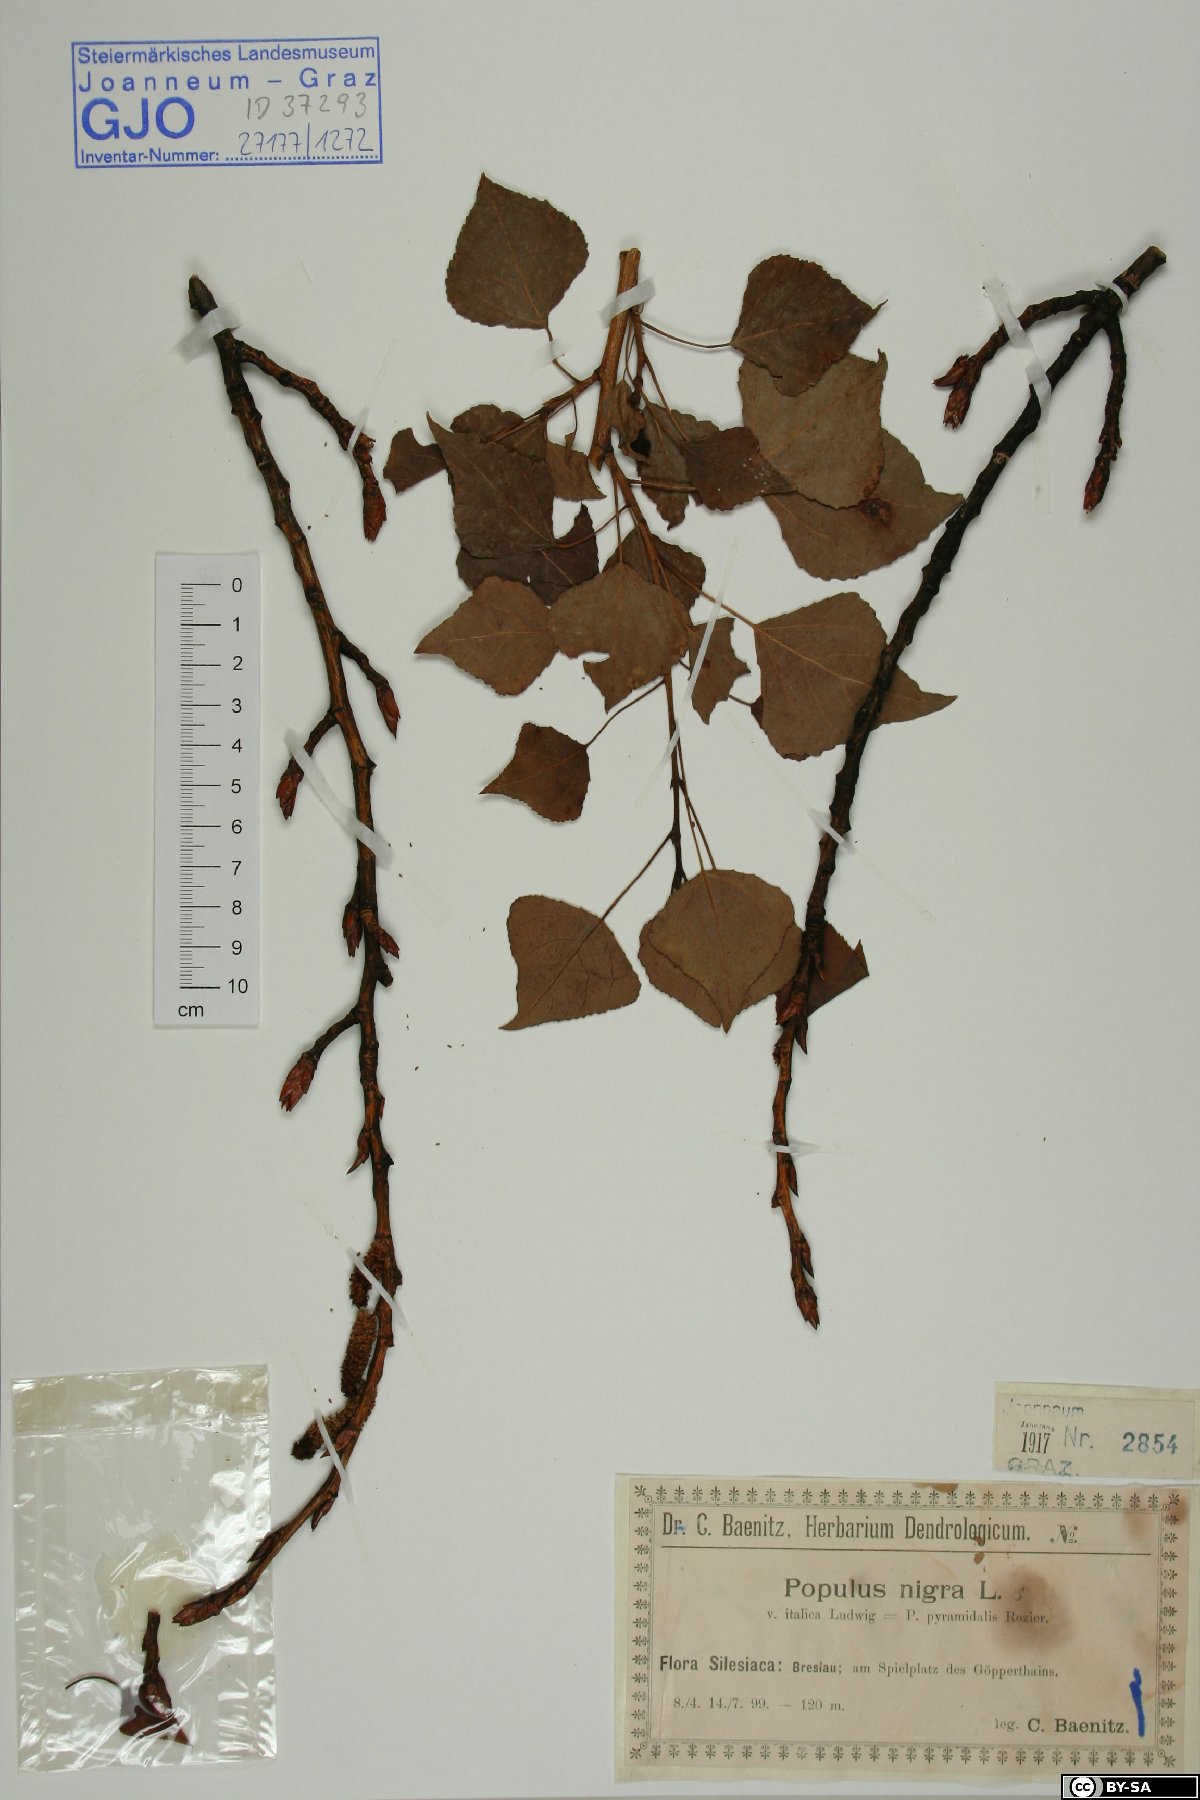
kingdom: Plantae
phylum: Tracheophyta
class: Magnoliopsida
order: Malpighiales
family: Salicaceae
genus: Populus
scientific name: Populus nigra
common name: Black poplar
